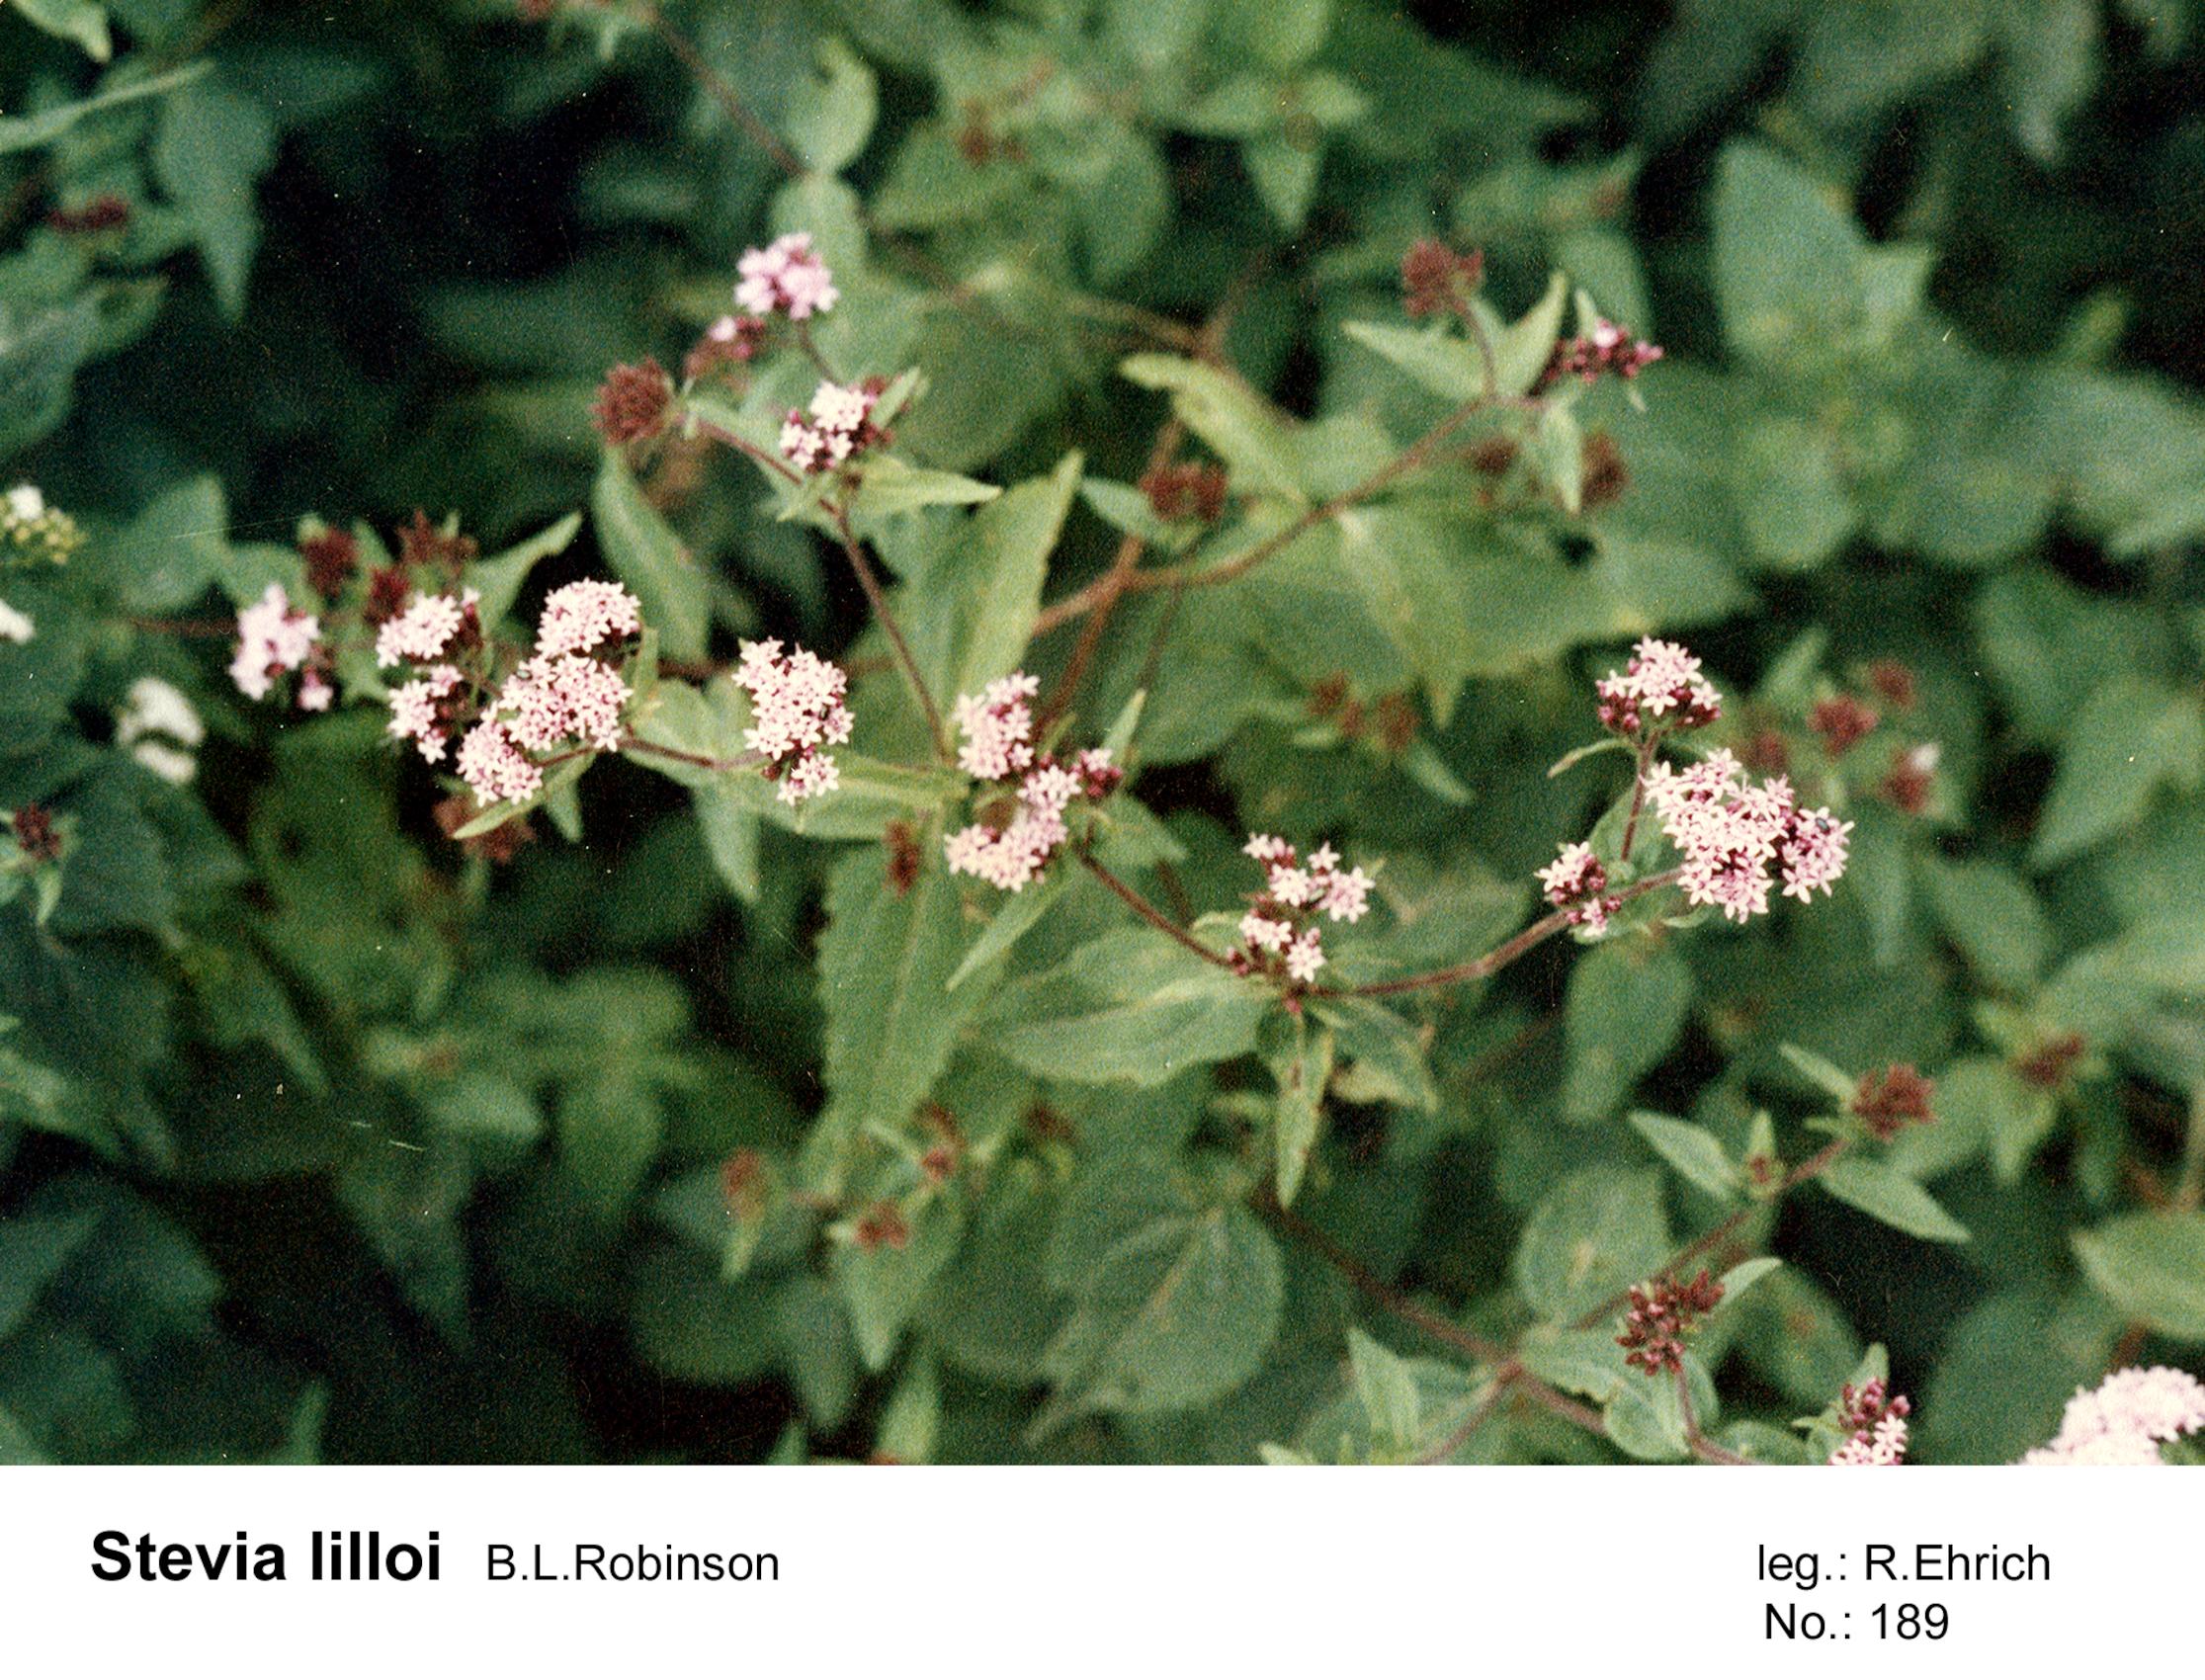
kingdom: Plantae
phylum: Tracheophyta
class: Magnoliopsida
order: Asterales
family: Asteraceae
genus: Stevia
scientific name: Stevia lilloi
